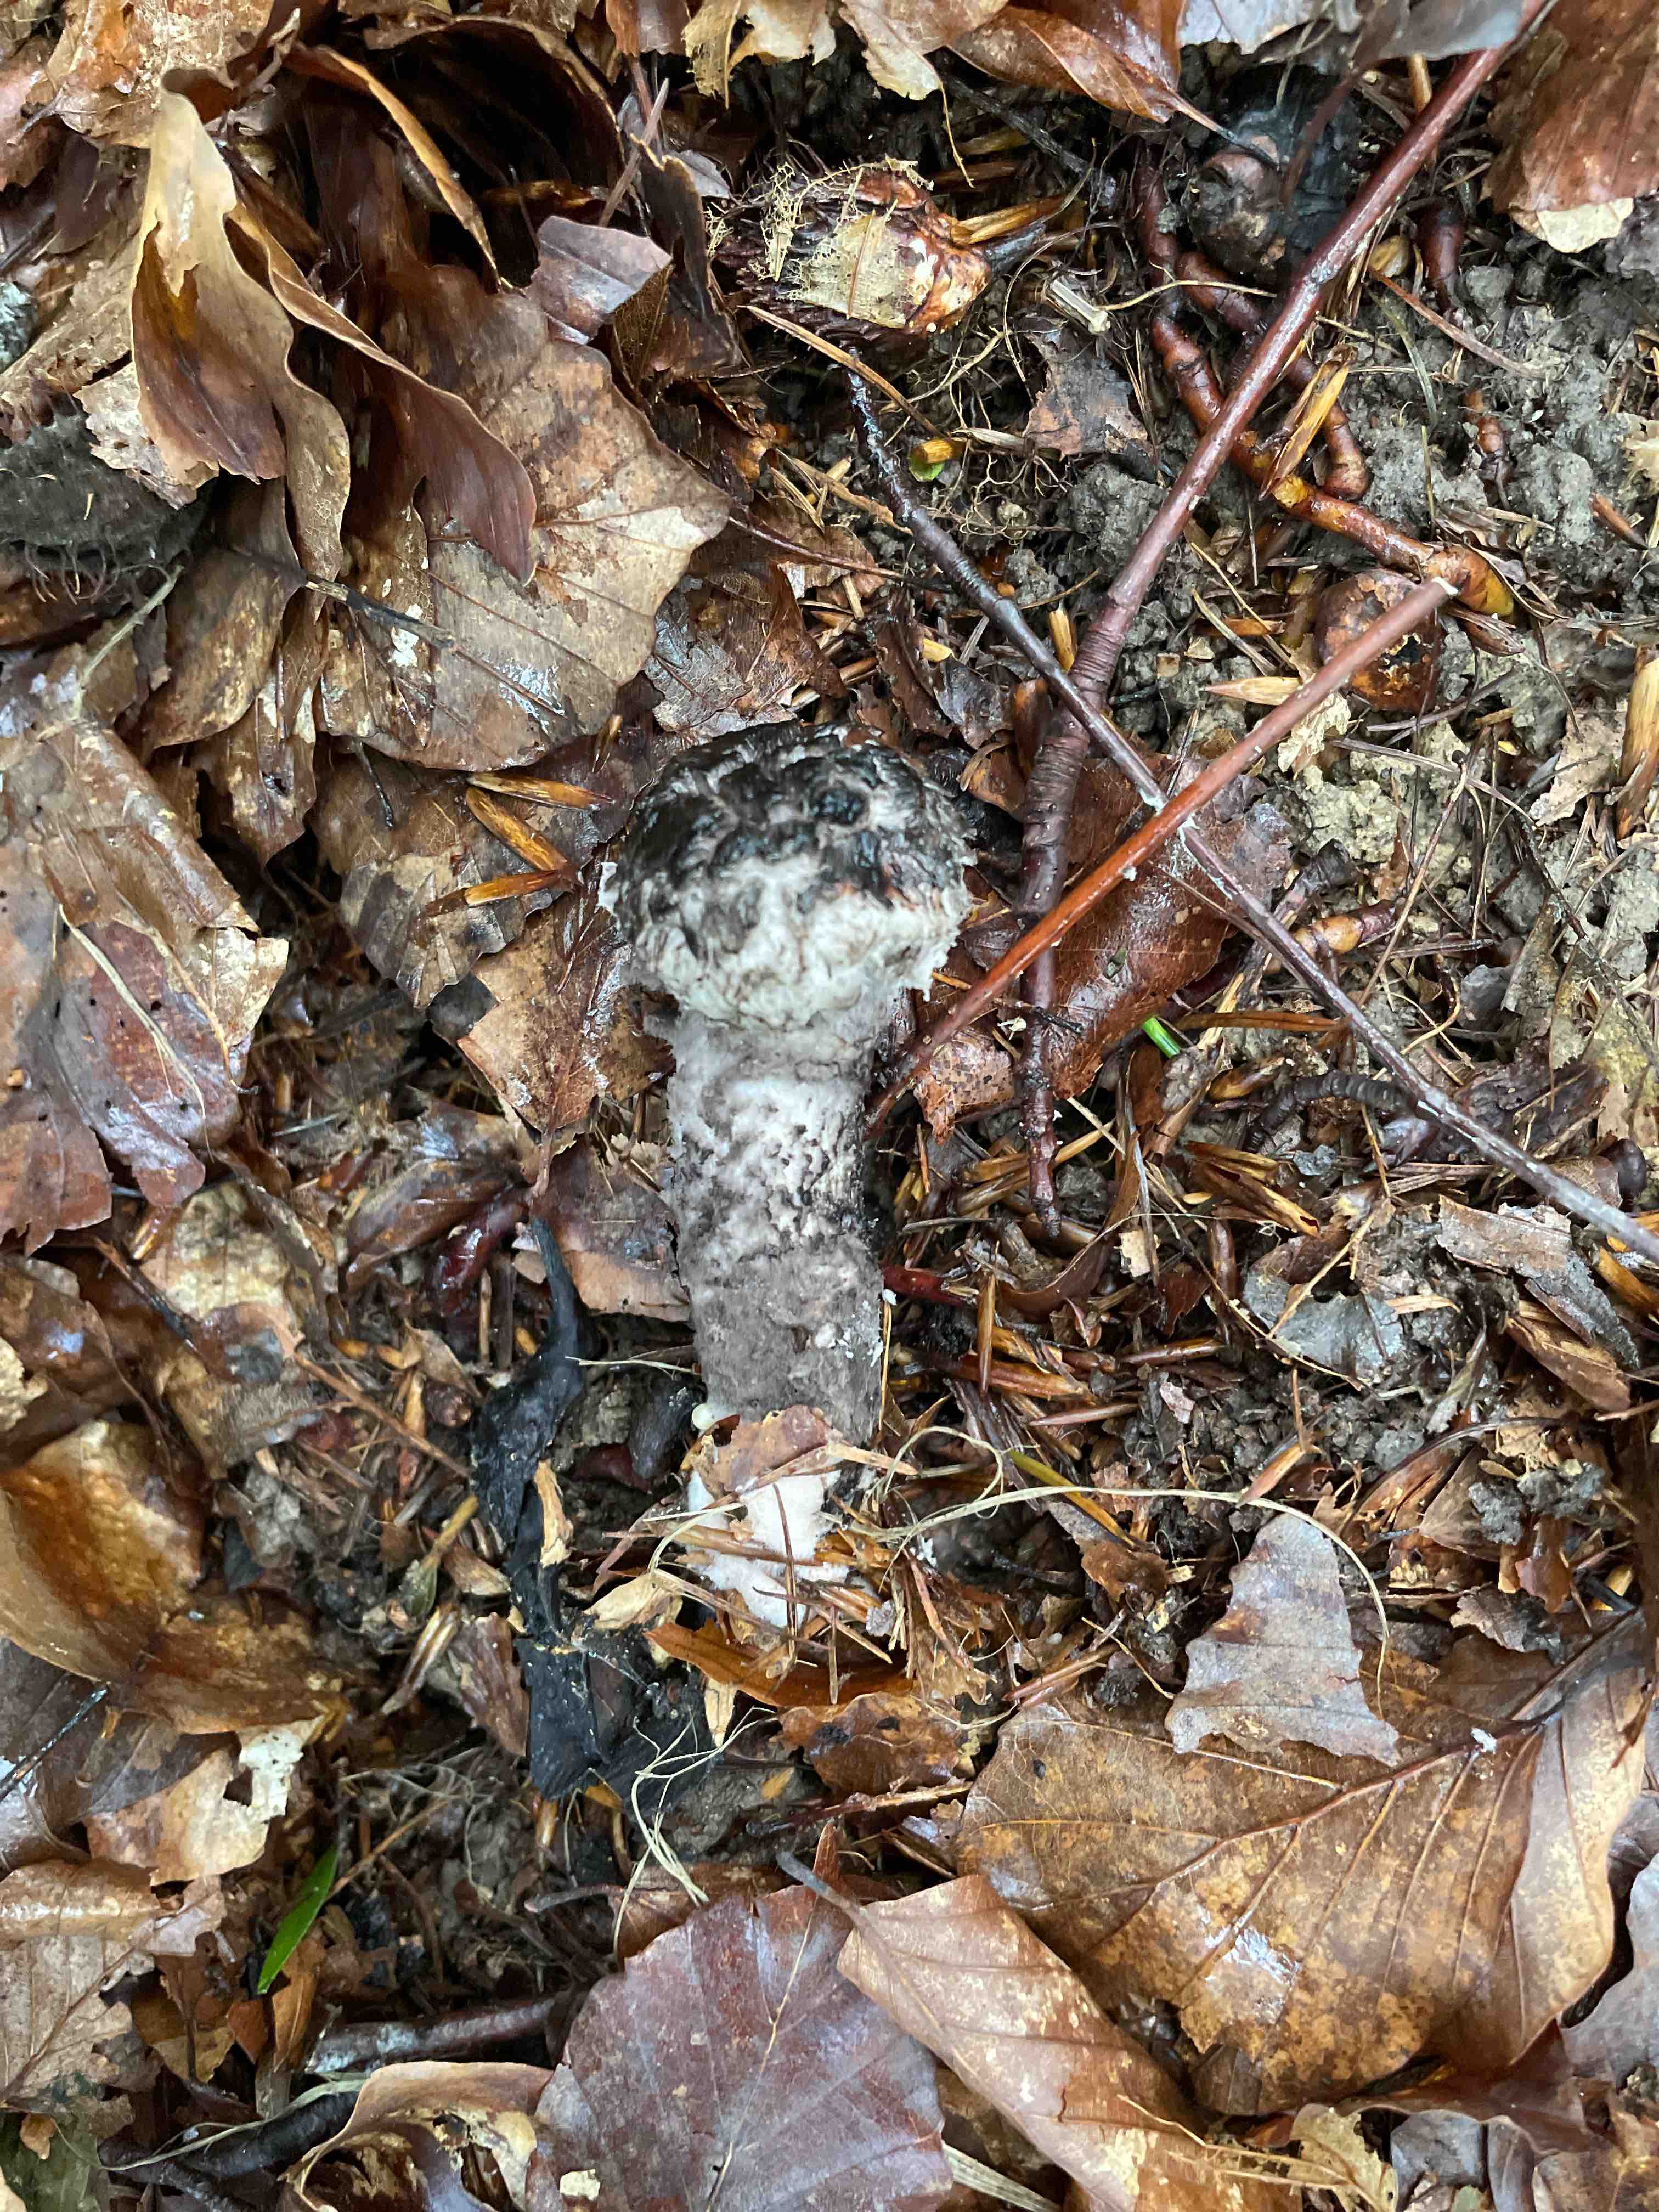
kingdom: Fungi
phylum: Basidiomycota
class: Agaricomycetes
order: Boletales
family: Boletaceae
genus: Strobilomyces
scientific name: Strobilomyces strobilaceus
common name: koglerørhat
